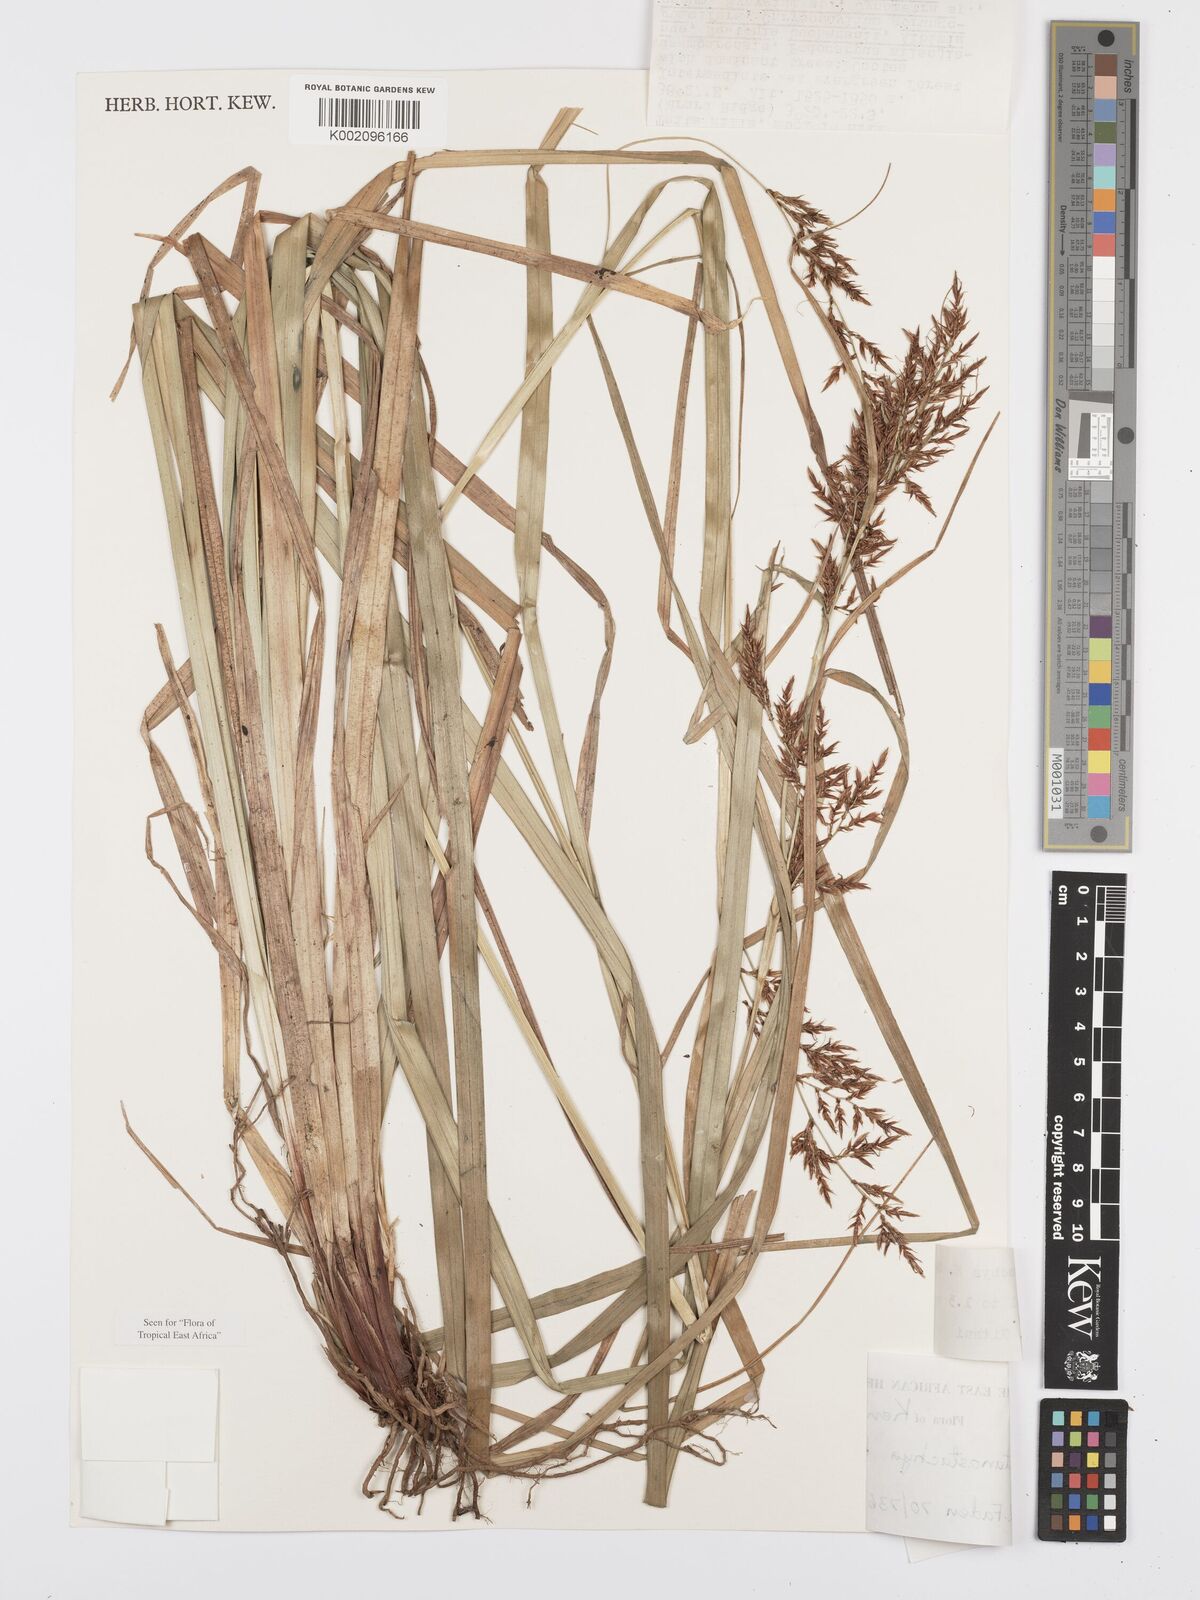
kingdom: Plantae
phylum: Tracheophyta
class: Liliopsida
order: Poales
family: Cyperaceae
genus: Carex
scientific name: Carex castanostachya
